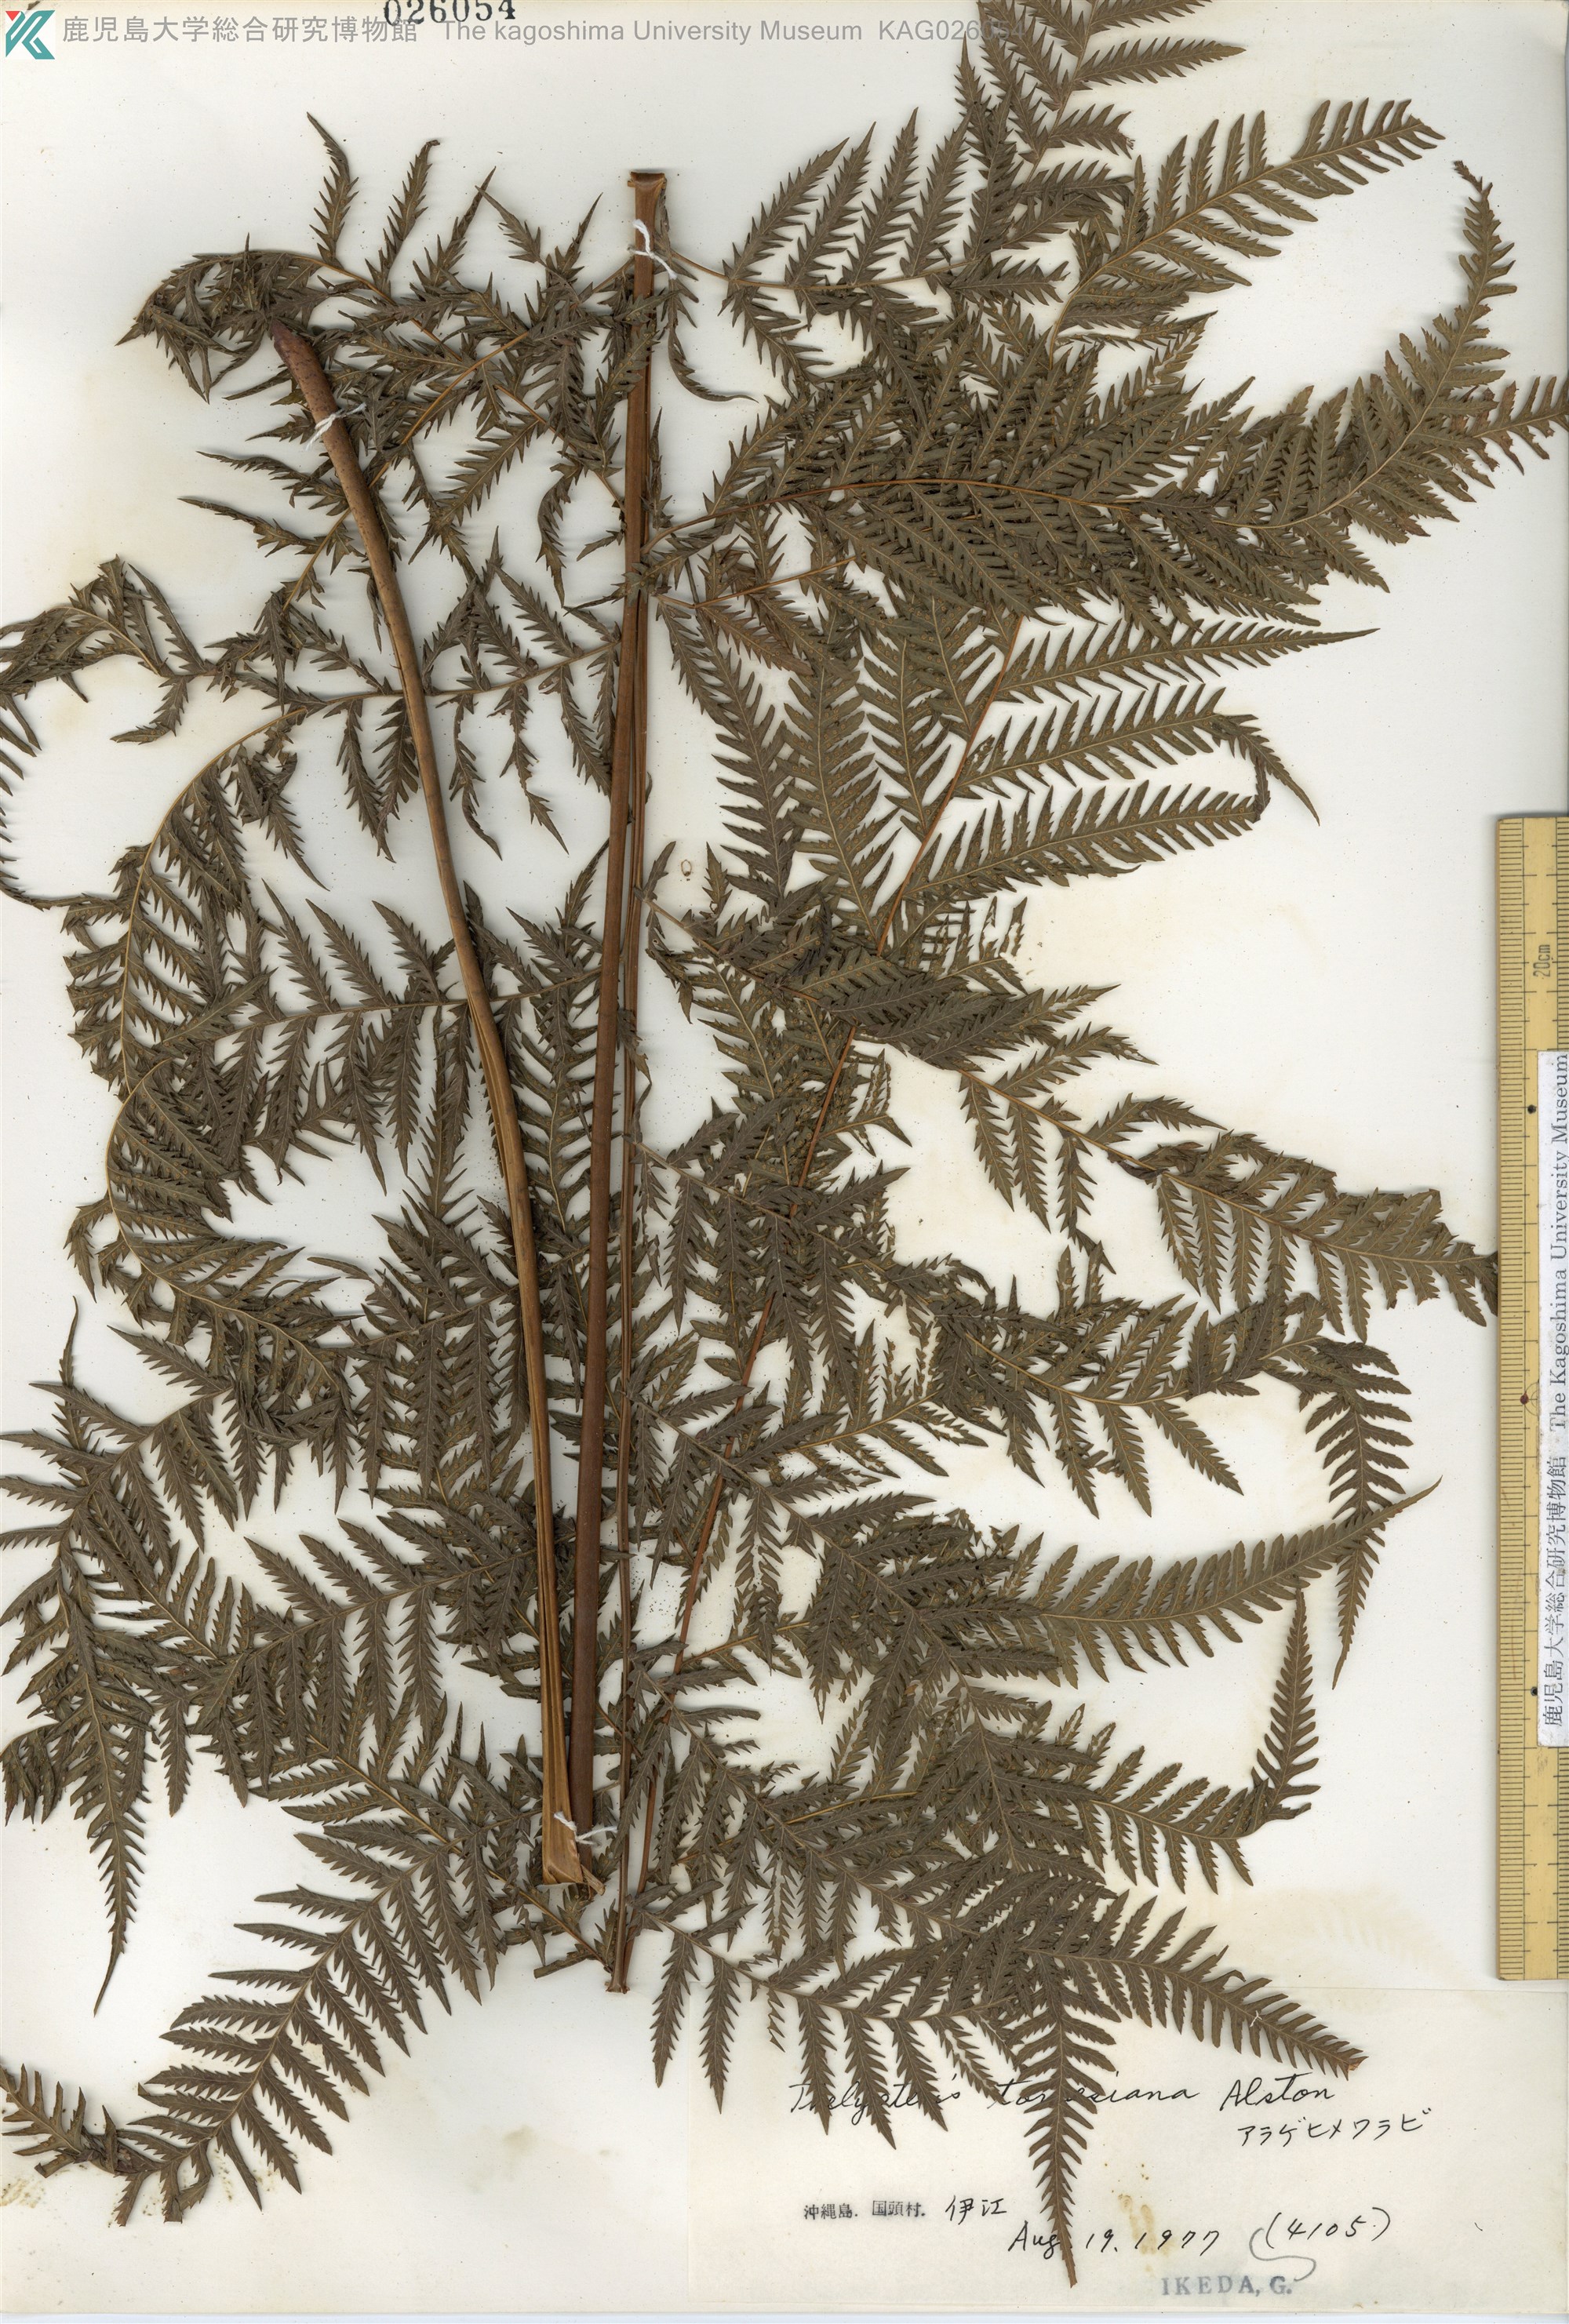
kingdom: Plantae
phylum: Tracheophyta
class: Polypodiopsida
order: Polypodiales
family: Thelypteridaceae
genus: Macrothelypteris
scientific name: Macrothelypteris oligophlebia
